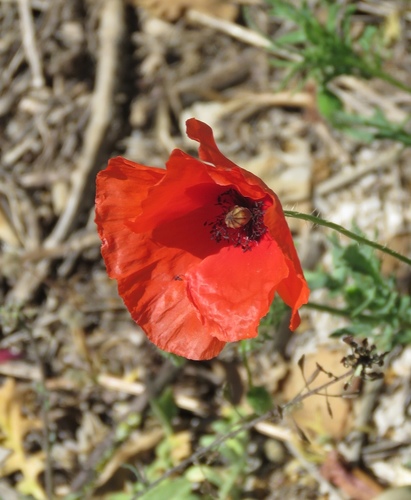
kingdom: Plantae
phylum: Tracheophyta
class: Magnoliopsida
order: Ranunculales
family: Papaveraceae
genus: Papaver
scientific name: Papaver rhoeas
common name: Corn poppy
